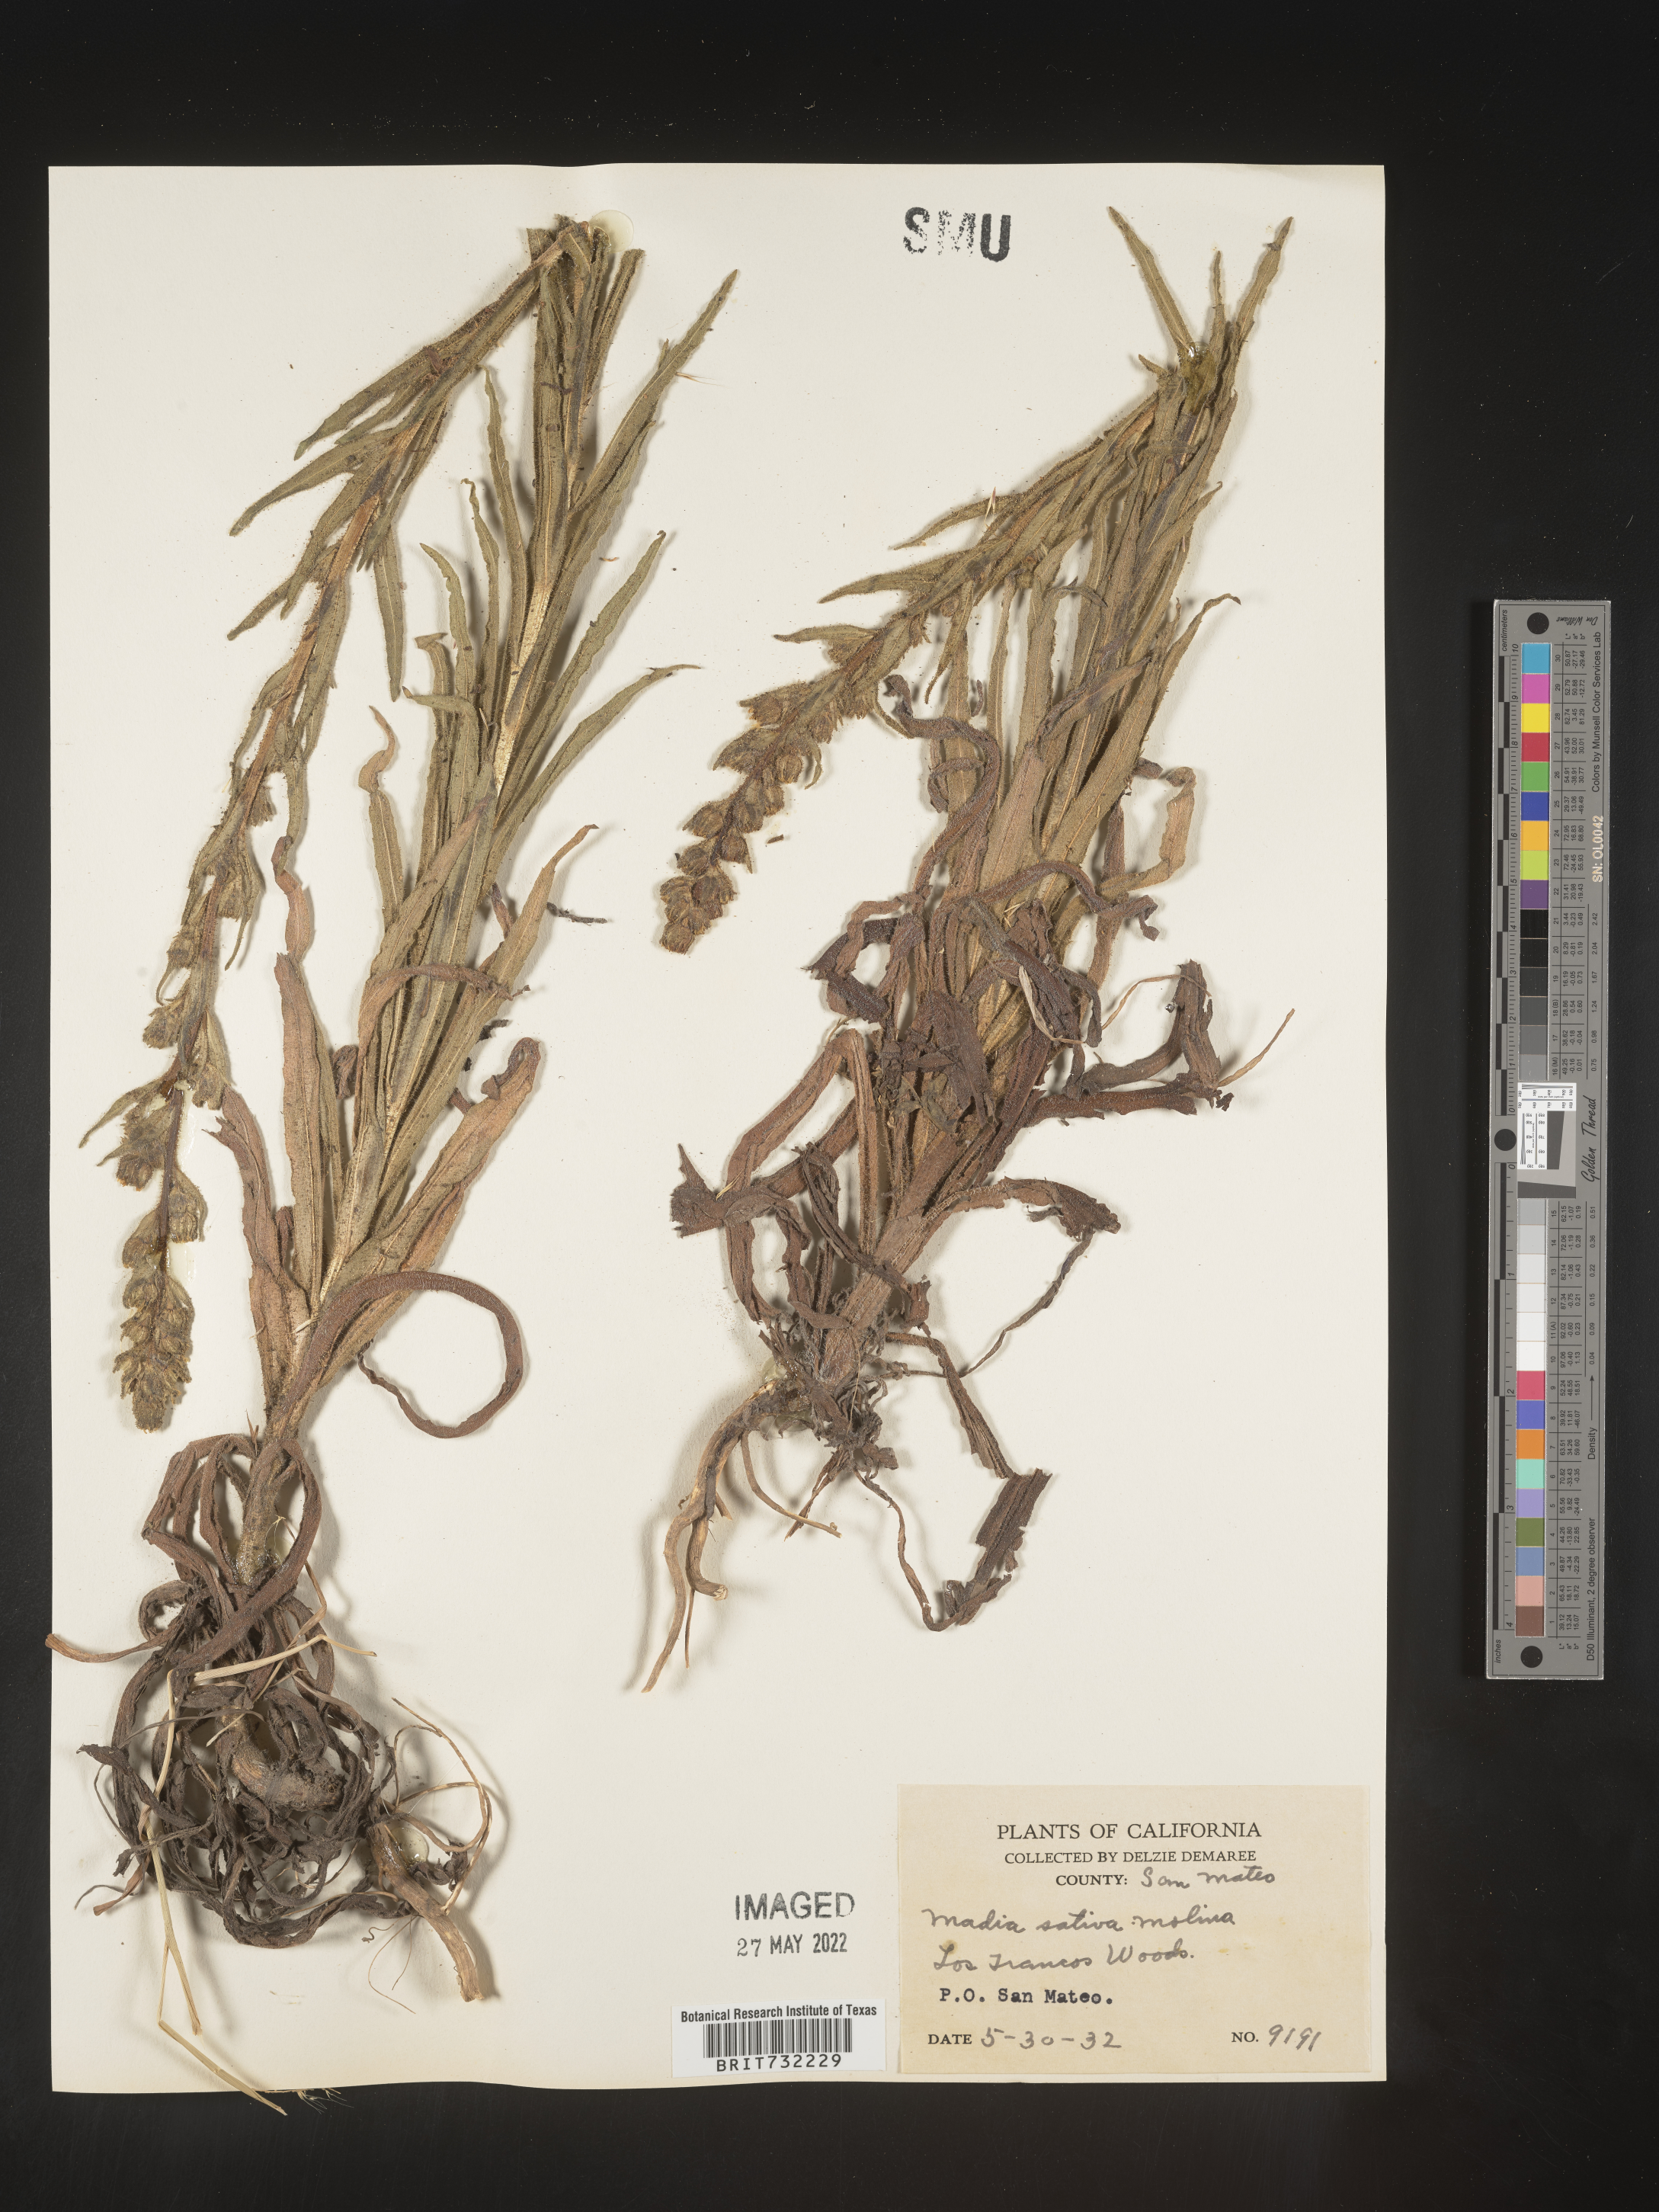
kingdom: Plantae
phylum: Tracheophyta
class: Magnoliopsida
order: Asterales
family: Asteraceae
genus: Madia
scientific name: Madia
